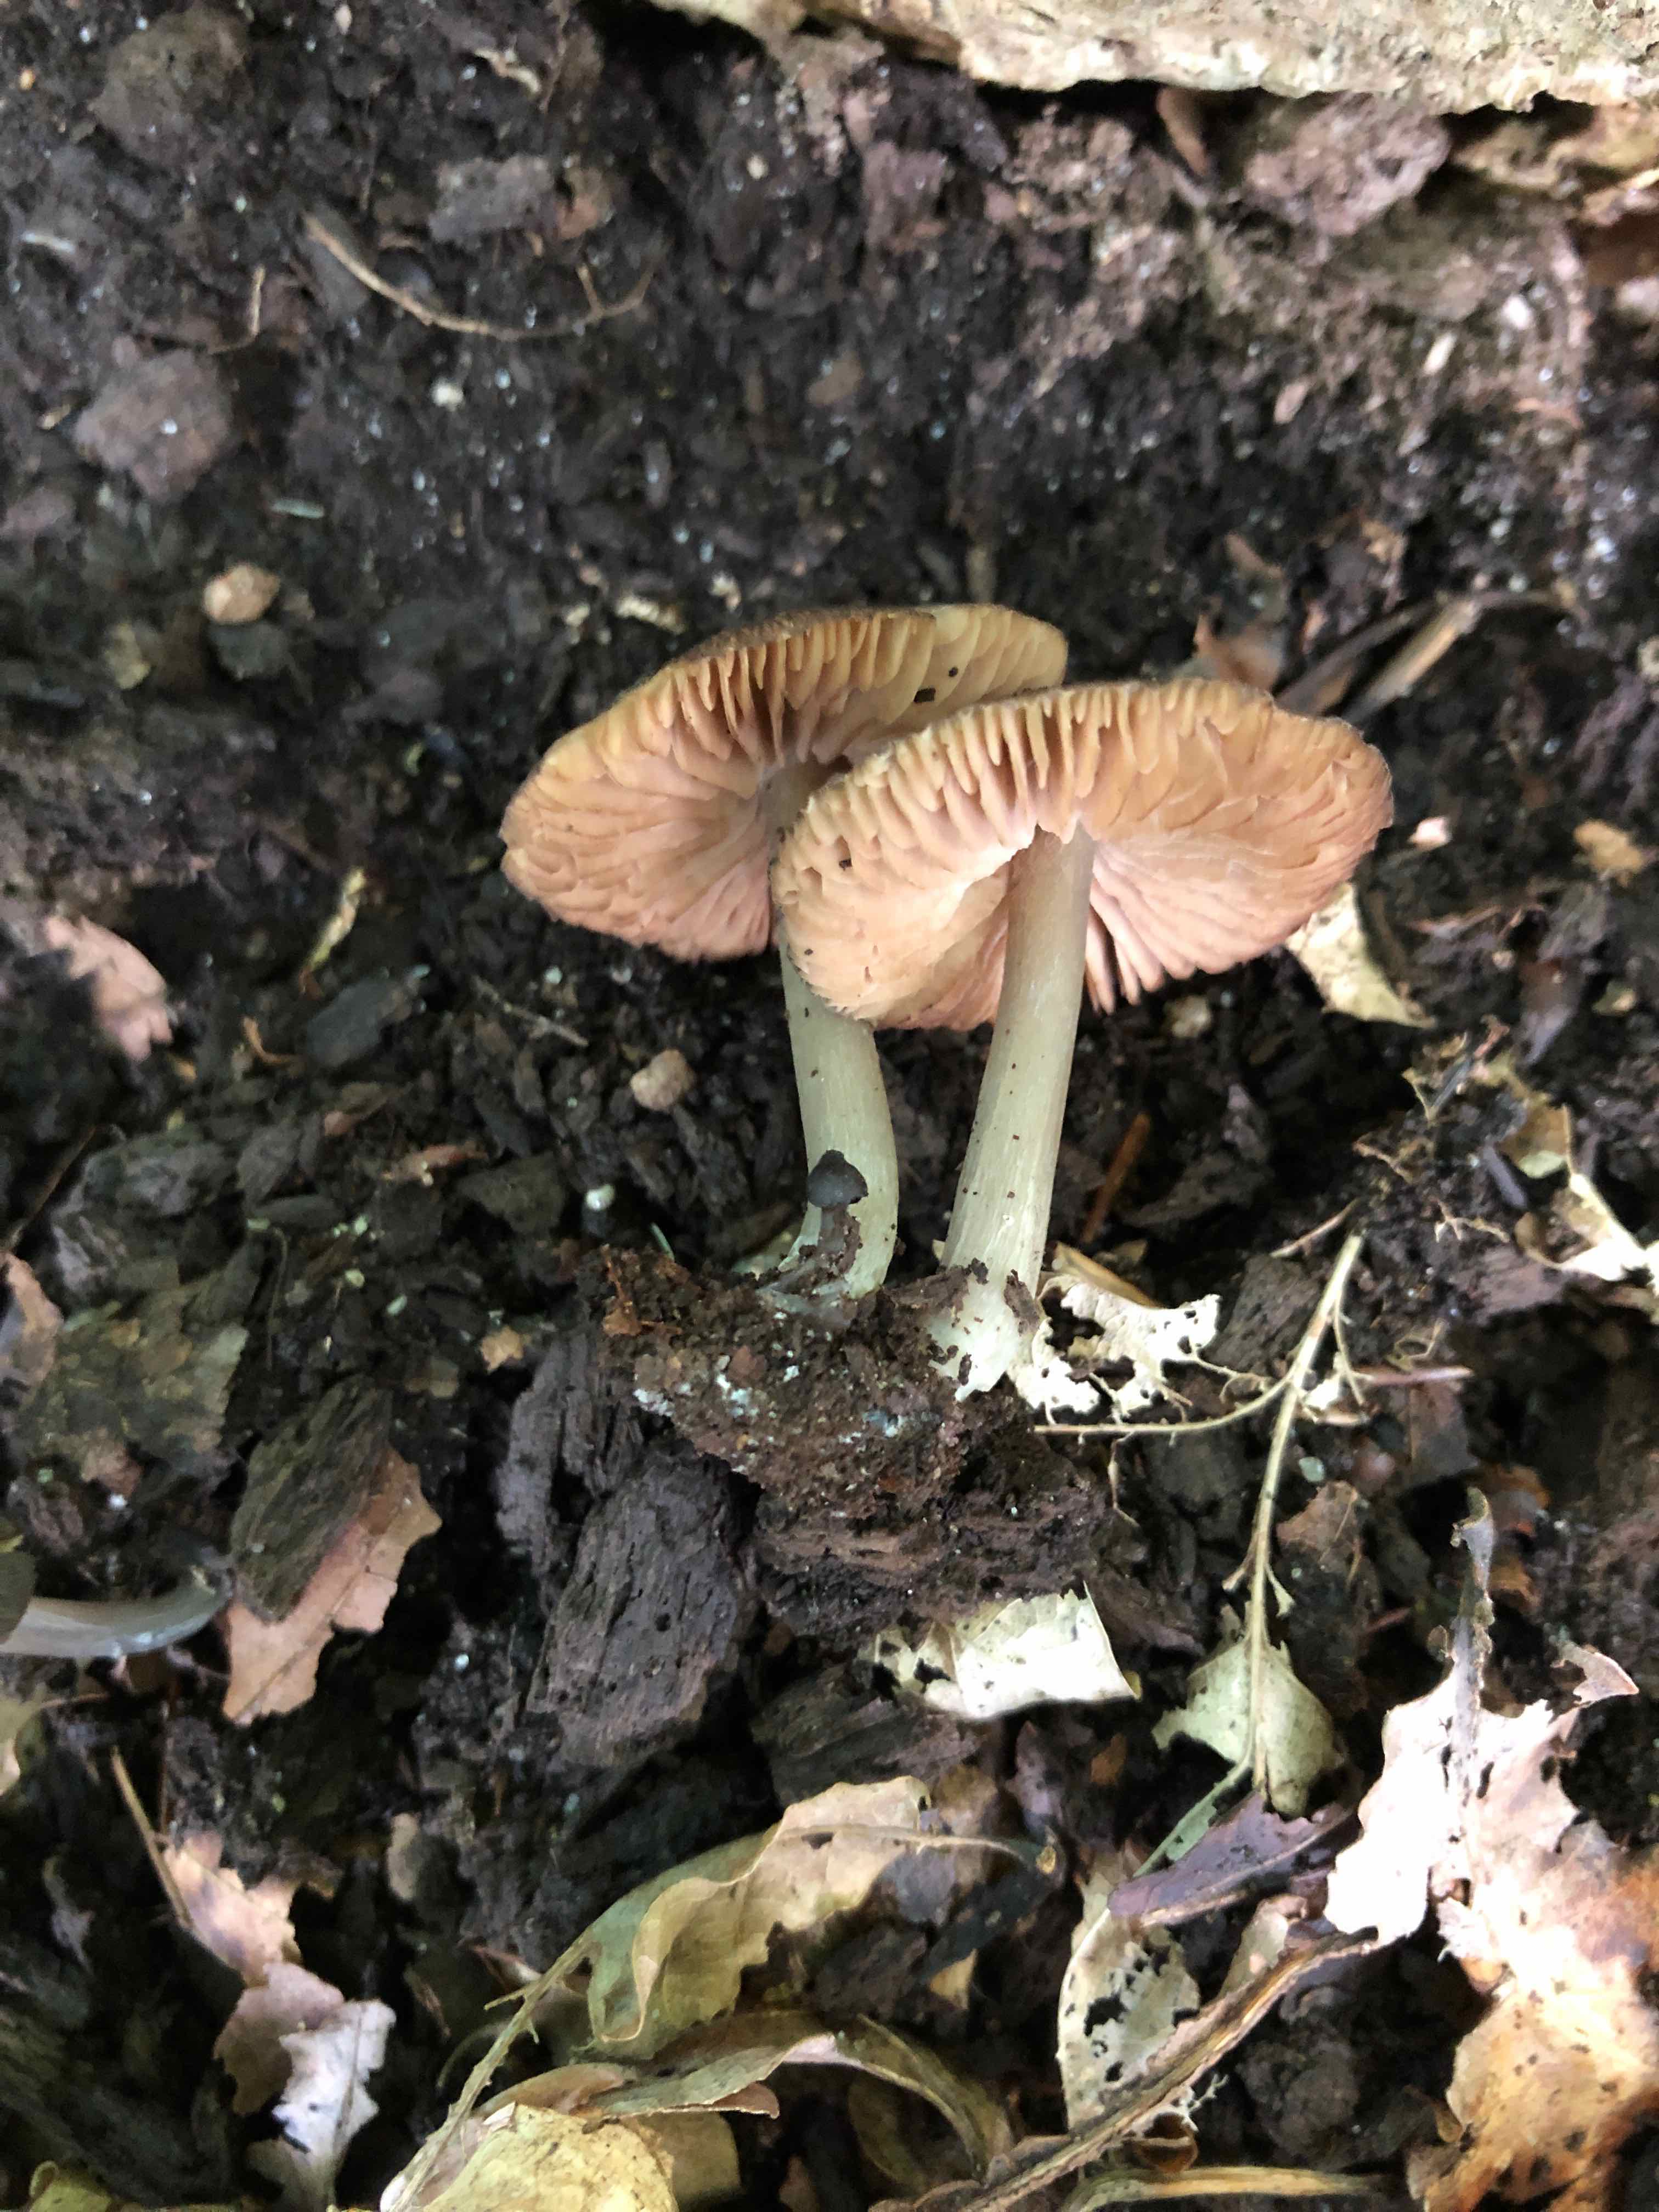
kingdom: Fungi
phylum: Basidiomycota
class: Agaricomycetes
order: Agaricales
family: Entolomataceae
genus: Entoloma
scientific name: Entoloma
